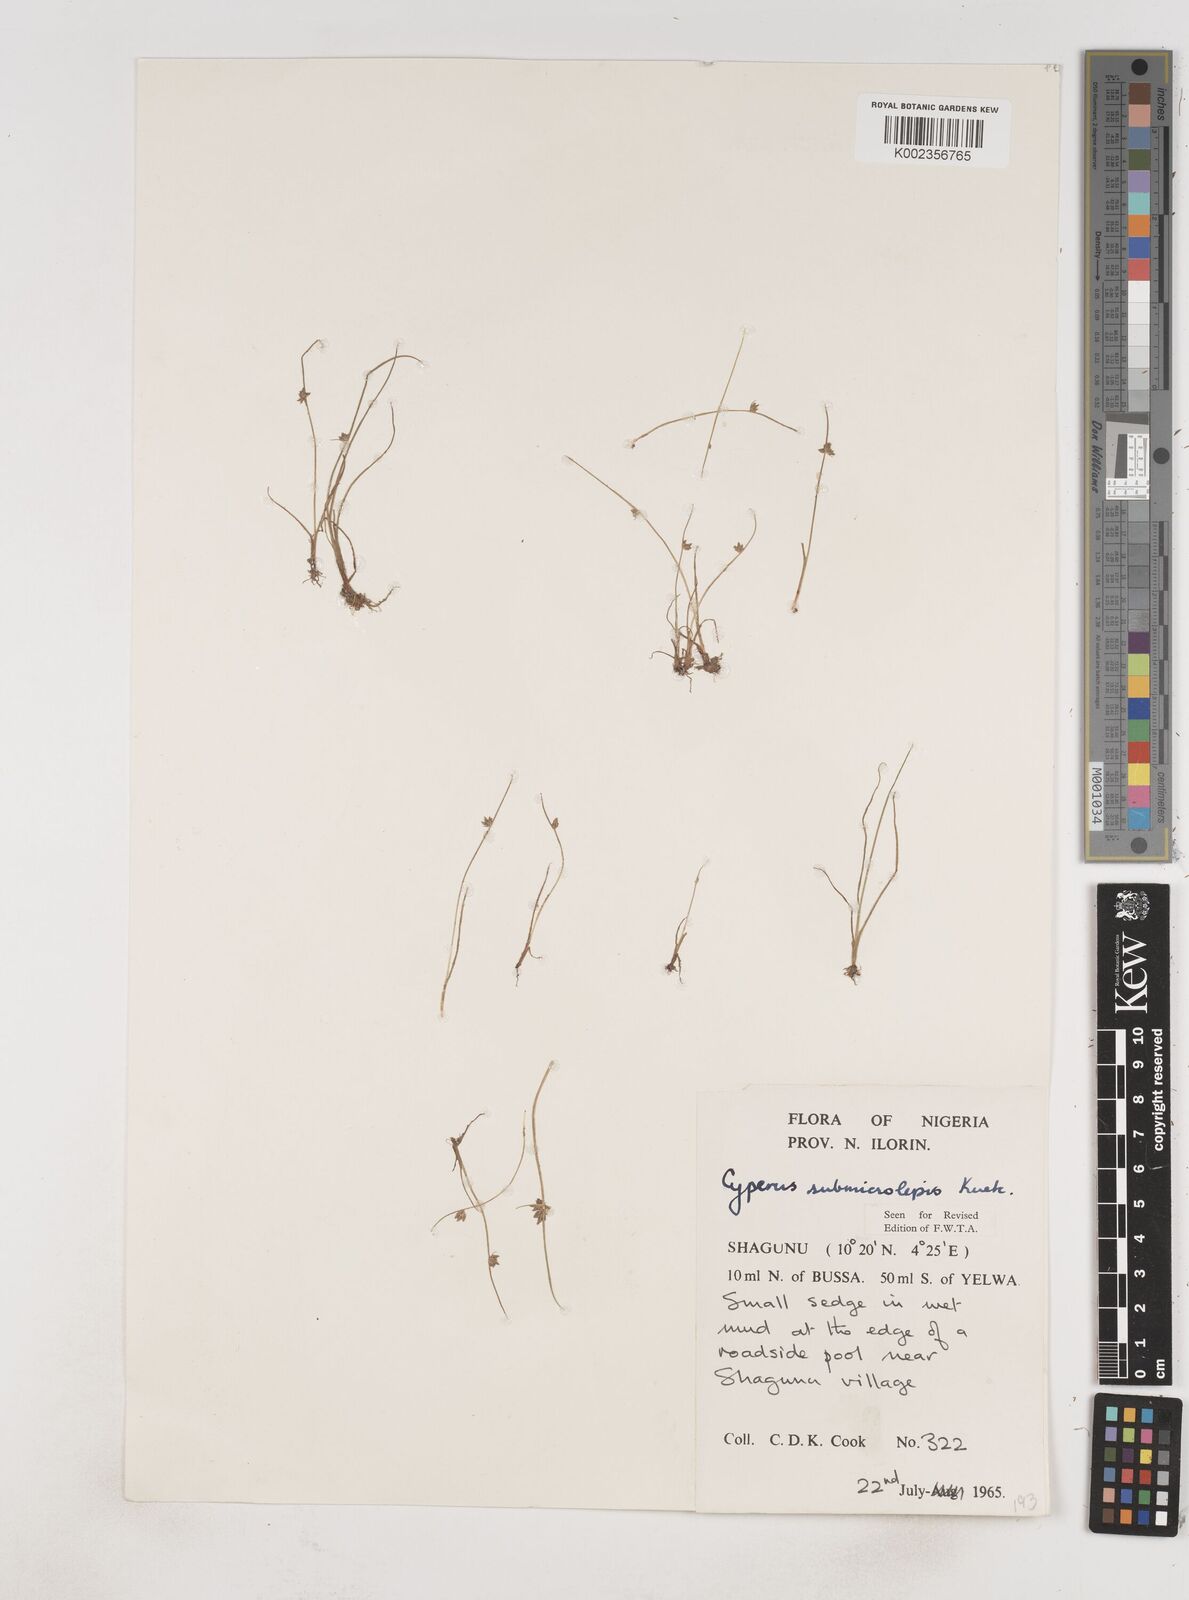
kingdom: Plantae
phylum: Tracheophyta
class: Liliopsida
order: Poales
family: Cyperaceae
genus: Cyperus
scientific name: Cyperus submicrolepis
